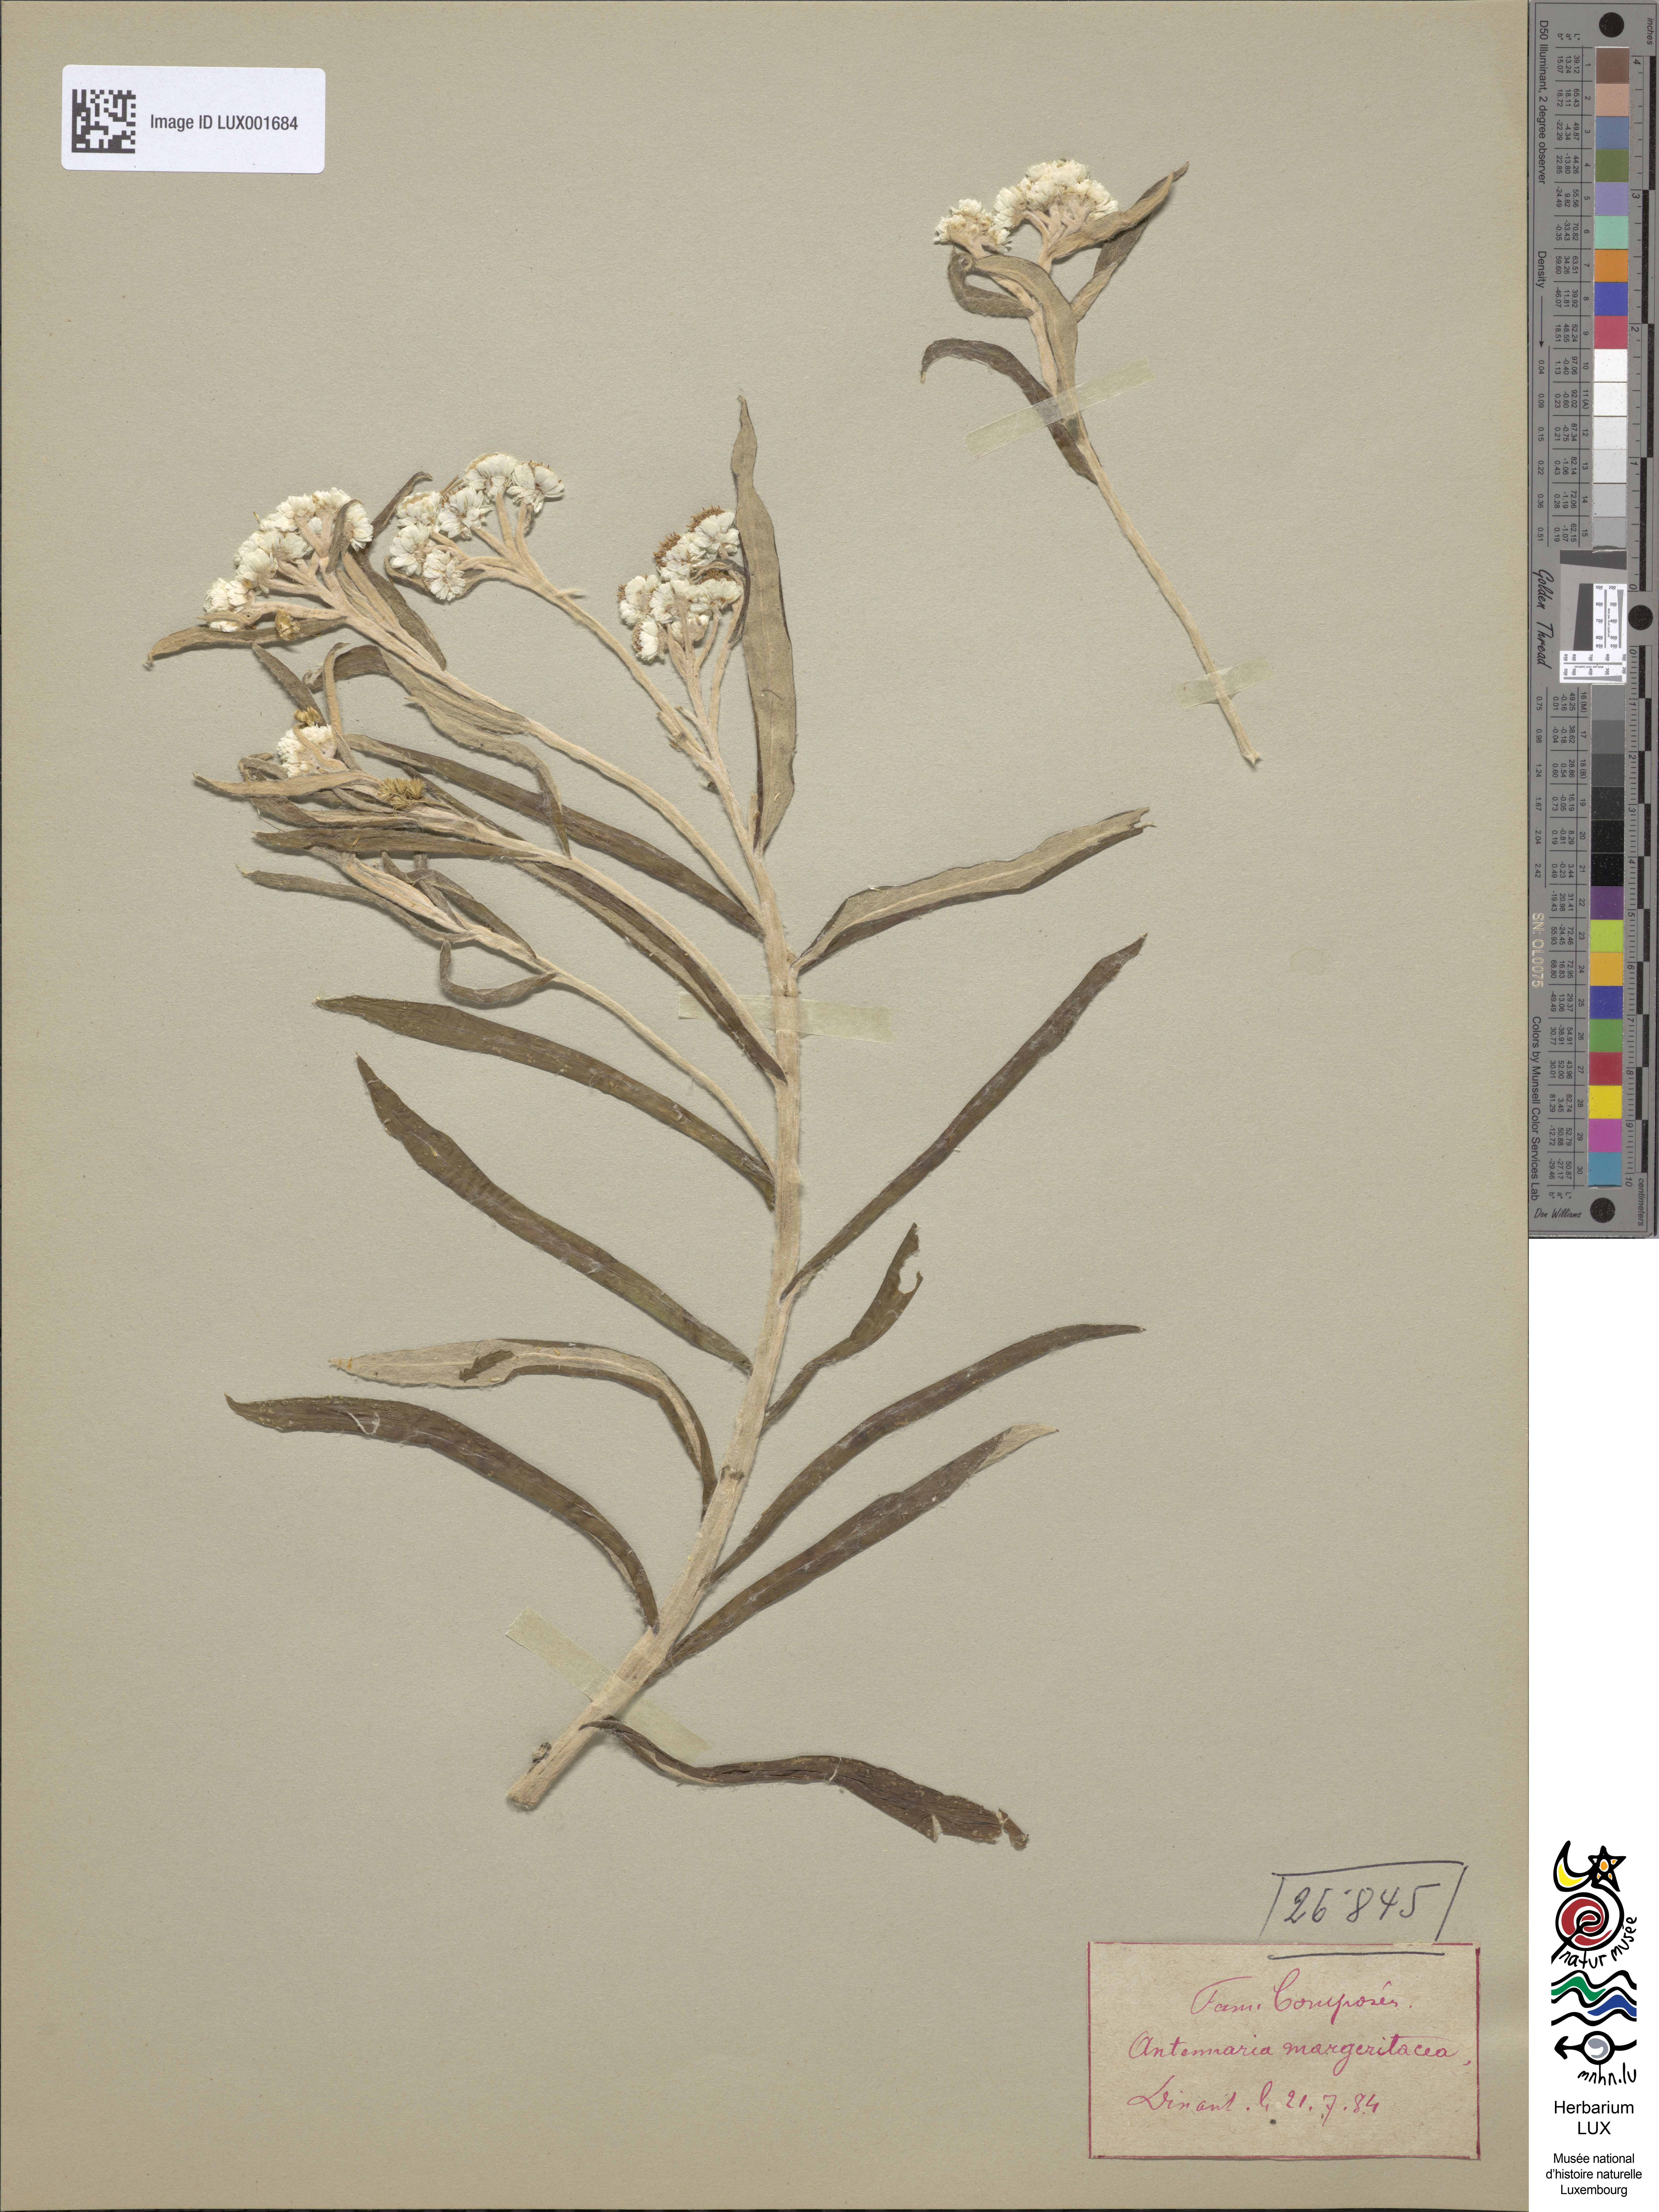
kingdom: Plantae
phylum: Tracheophyta
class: Magnoliopsida
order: Asterales
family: Asteraceae
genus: Anaphalis
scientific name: Anaphalis margaritacea
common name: Pearly everlasting
